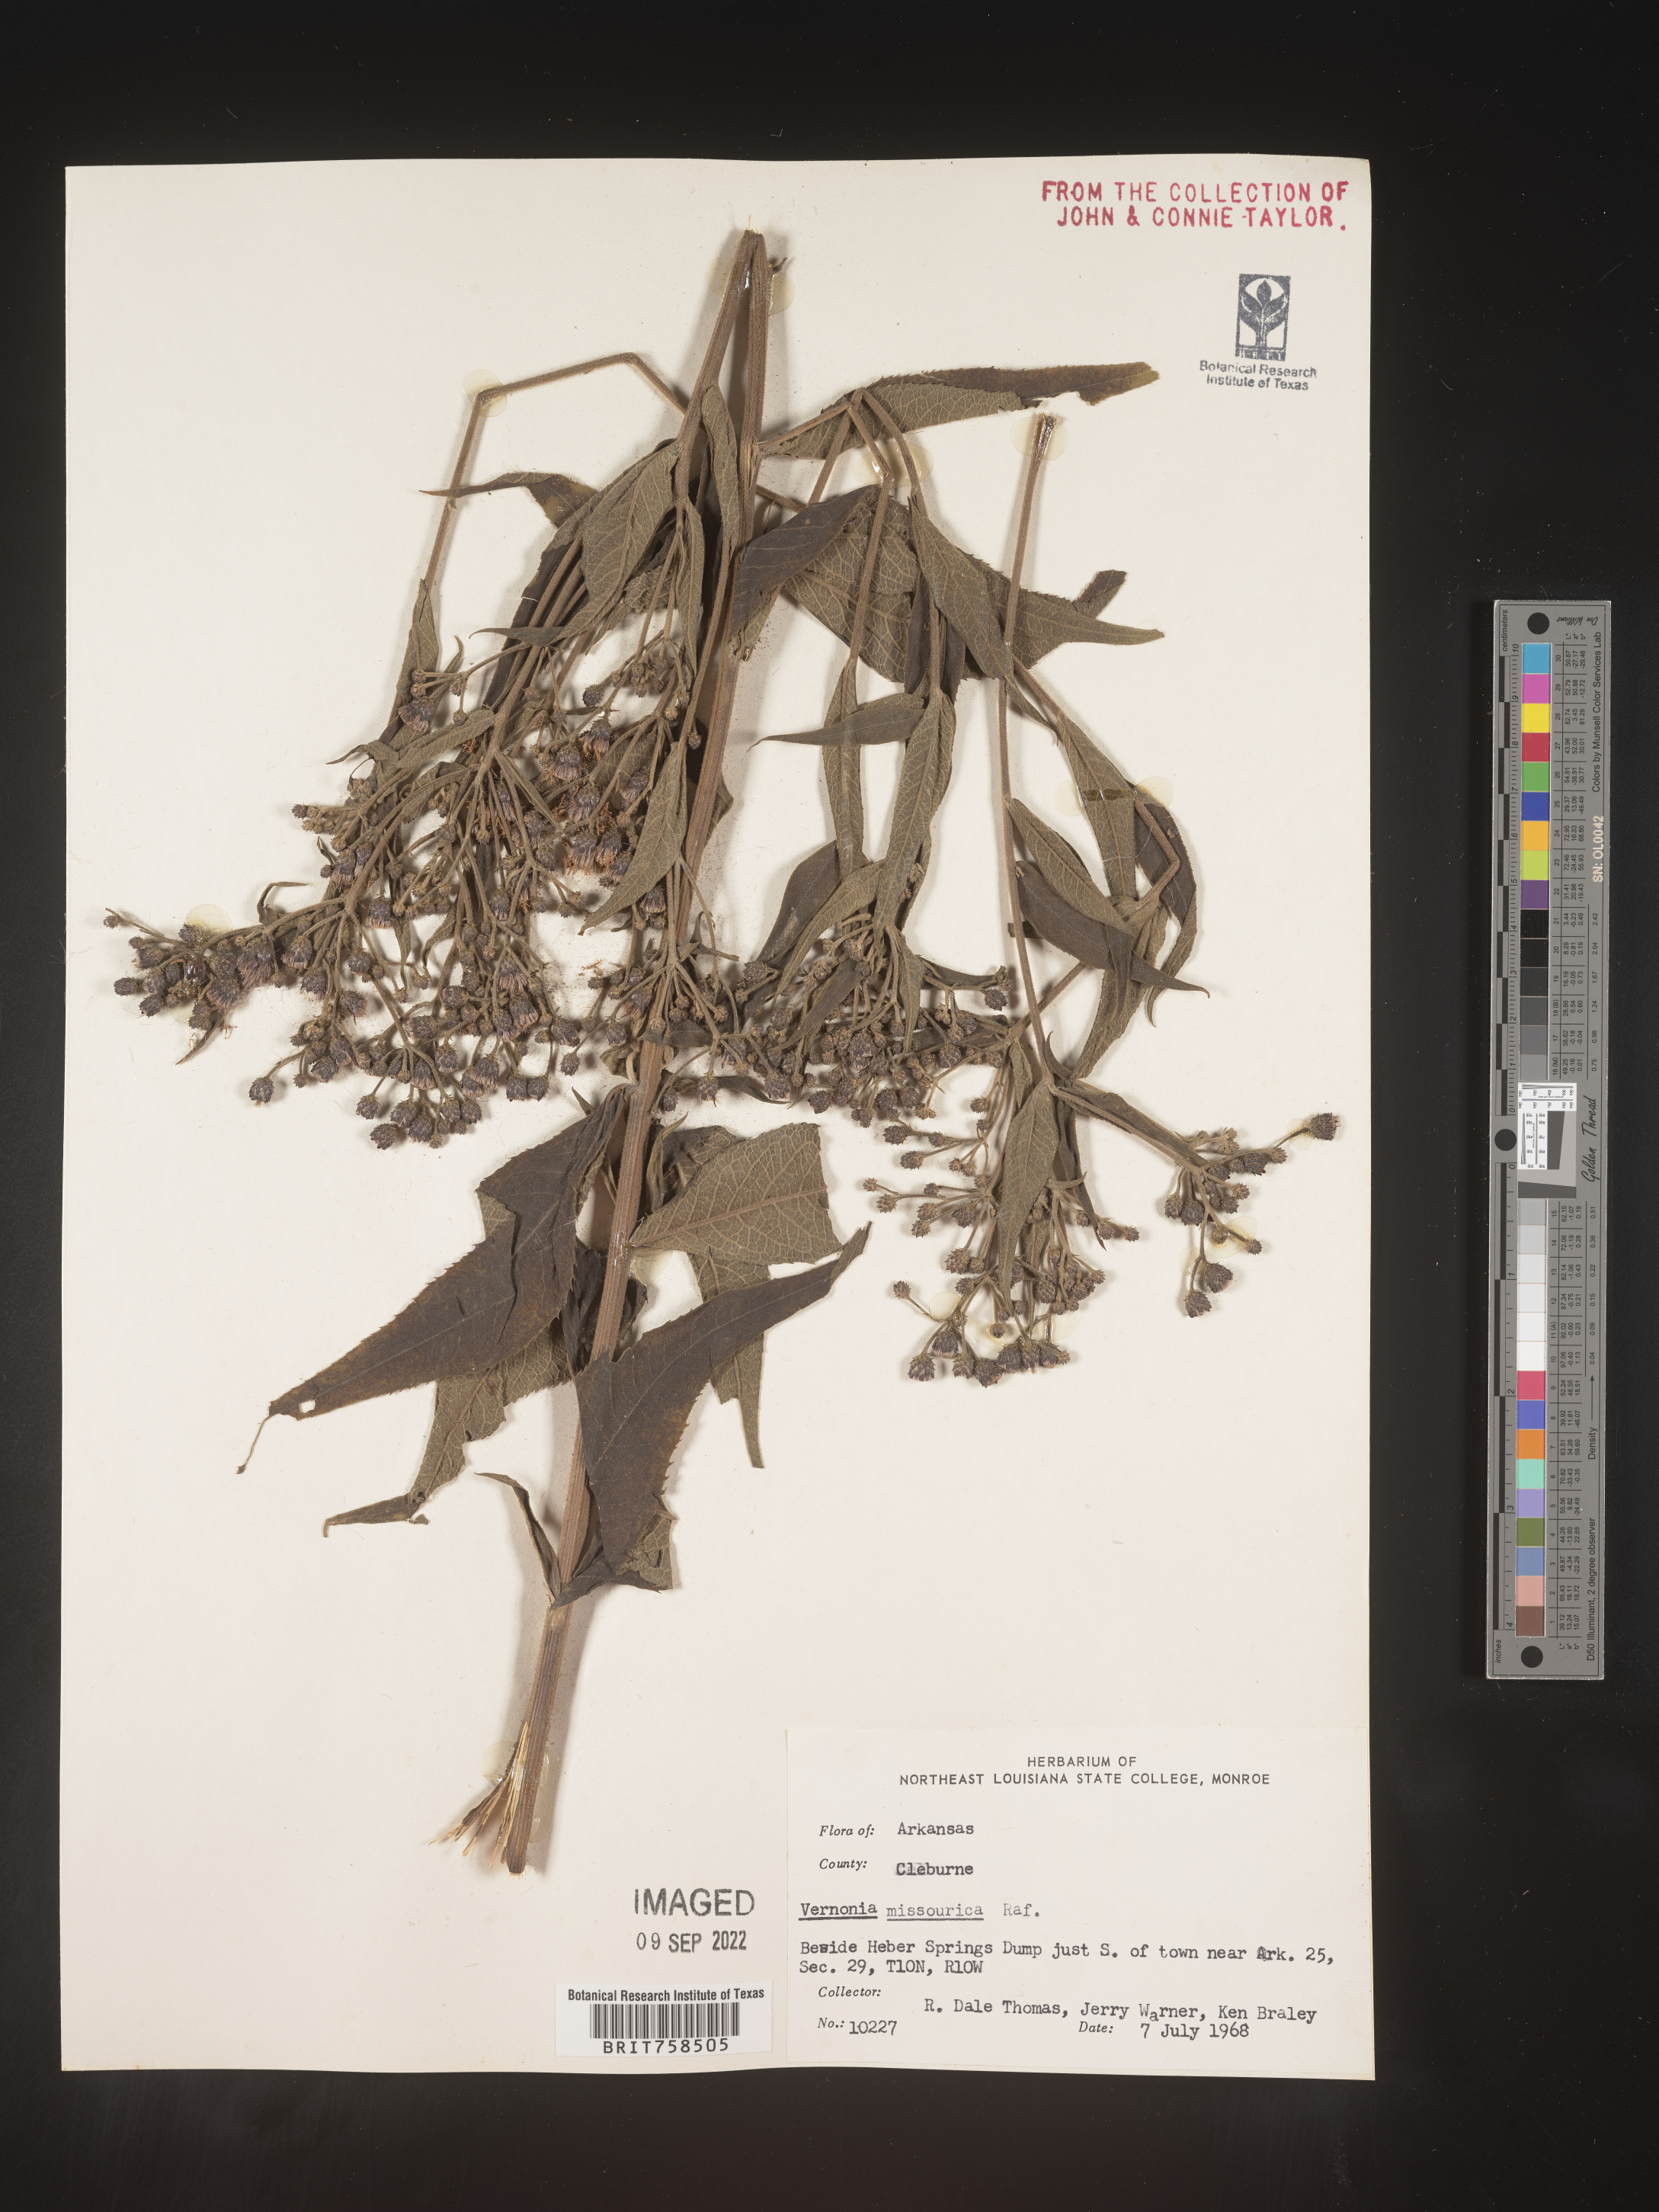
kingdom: Plantae
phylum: Tracheophyta
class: Magnoliopsida
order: Asterales
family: Asteraceae
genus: Vernonia
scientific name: Vernonia missurica
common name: Missouri ironweed
